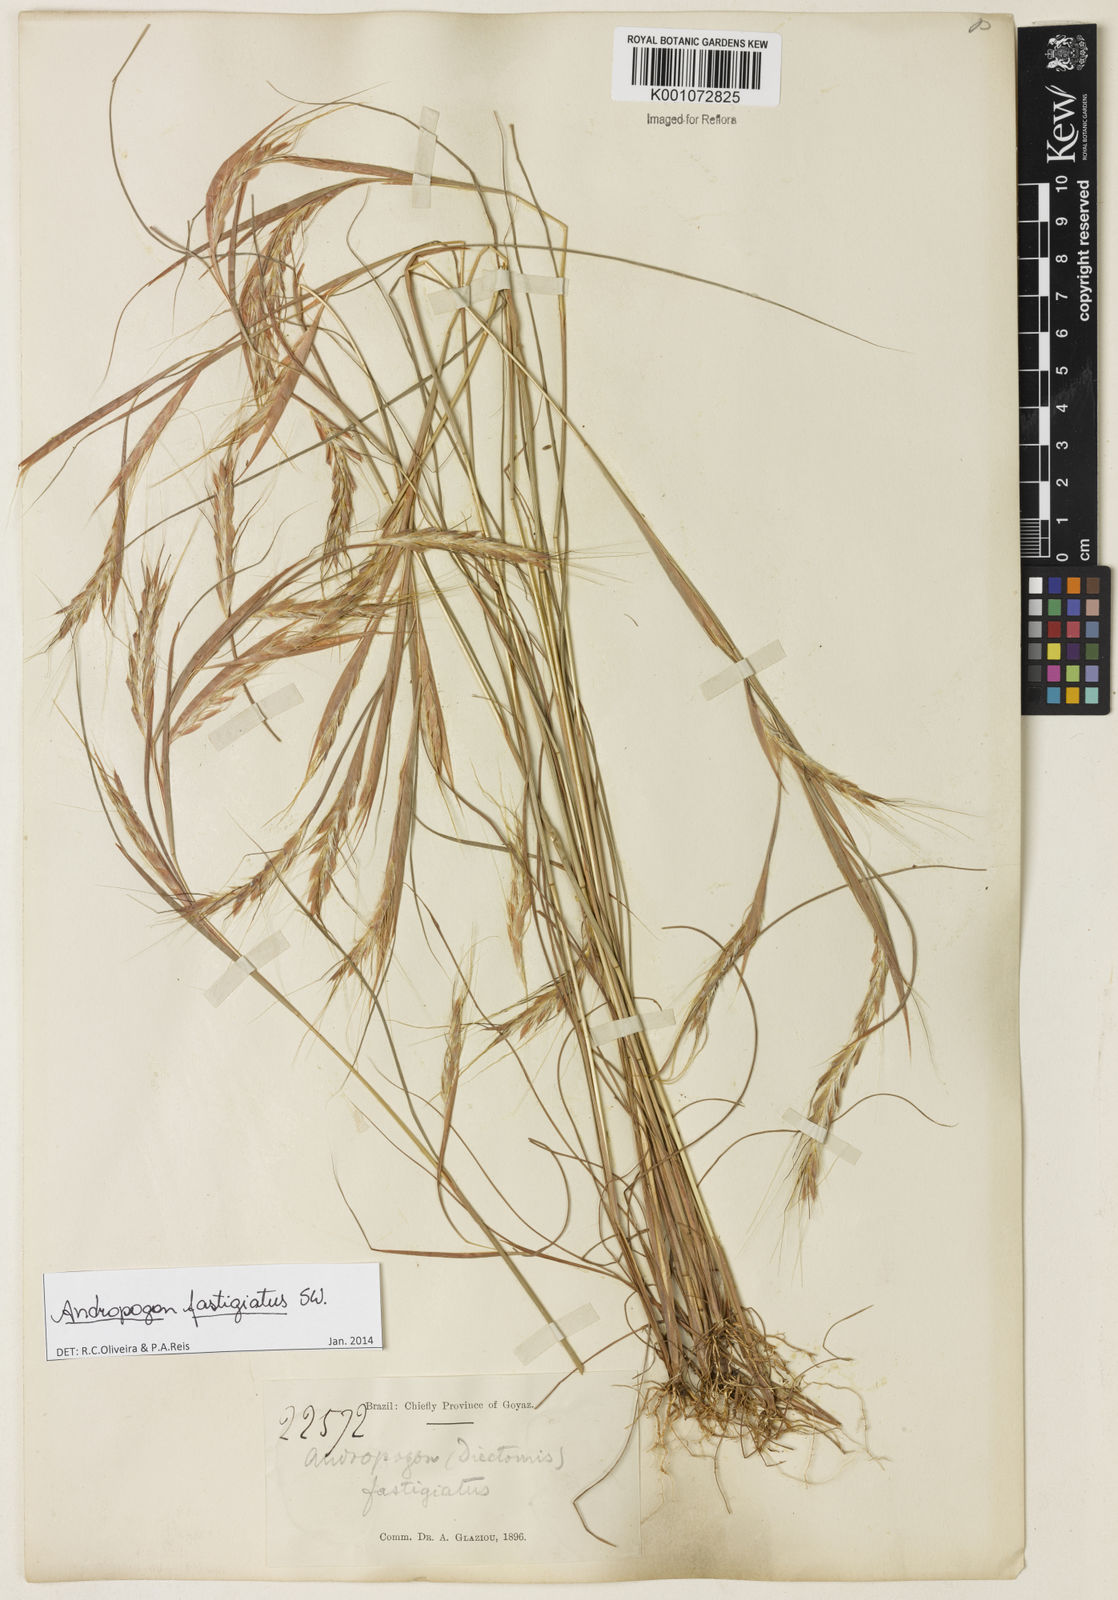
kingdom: Plantae
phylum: Tracheophyta
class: Liliopsida
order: Poales
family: Poaceae
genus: Diectomis
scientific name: Diectomis fastigiata
